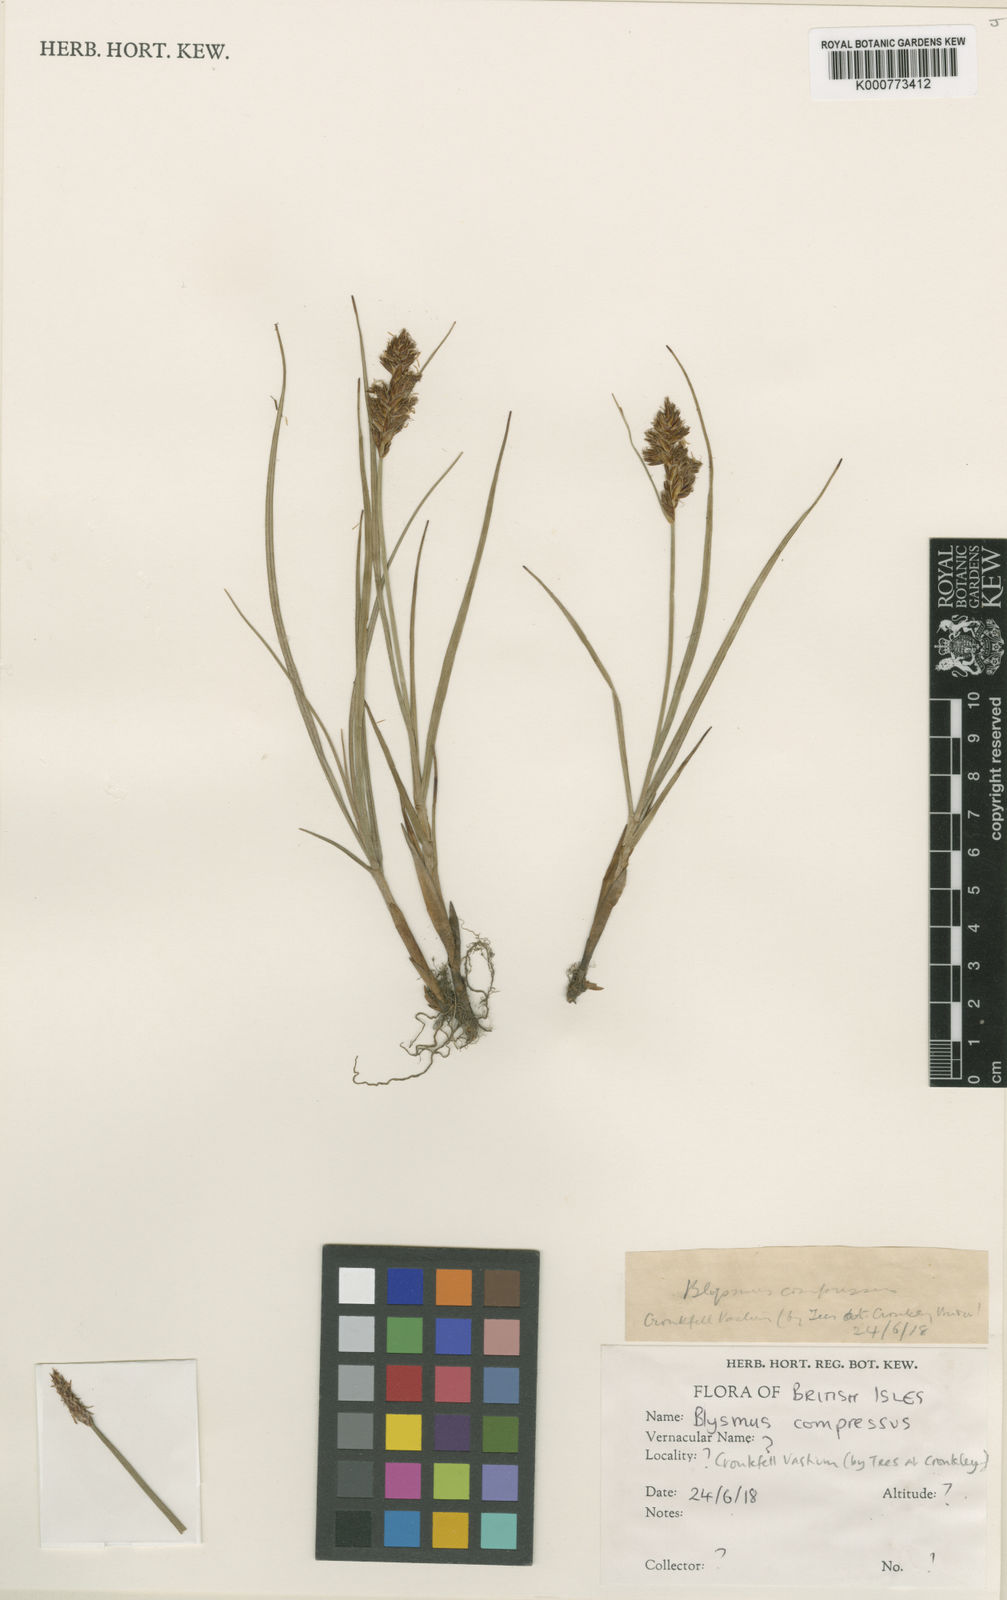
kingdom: Plantae
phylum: Tracheophyta
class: Liliopsida
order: Poales
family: Cyperaceae
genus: Blysmus
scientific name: Blysmus compressus
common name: Flat-sedge
